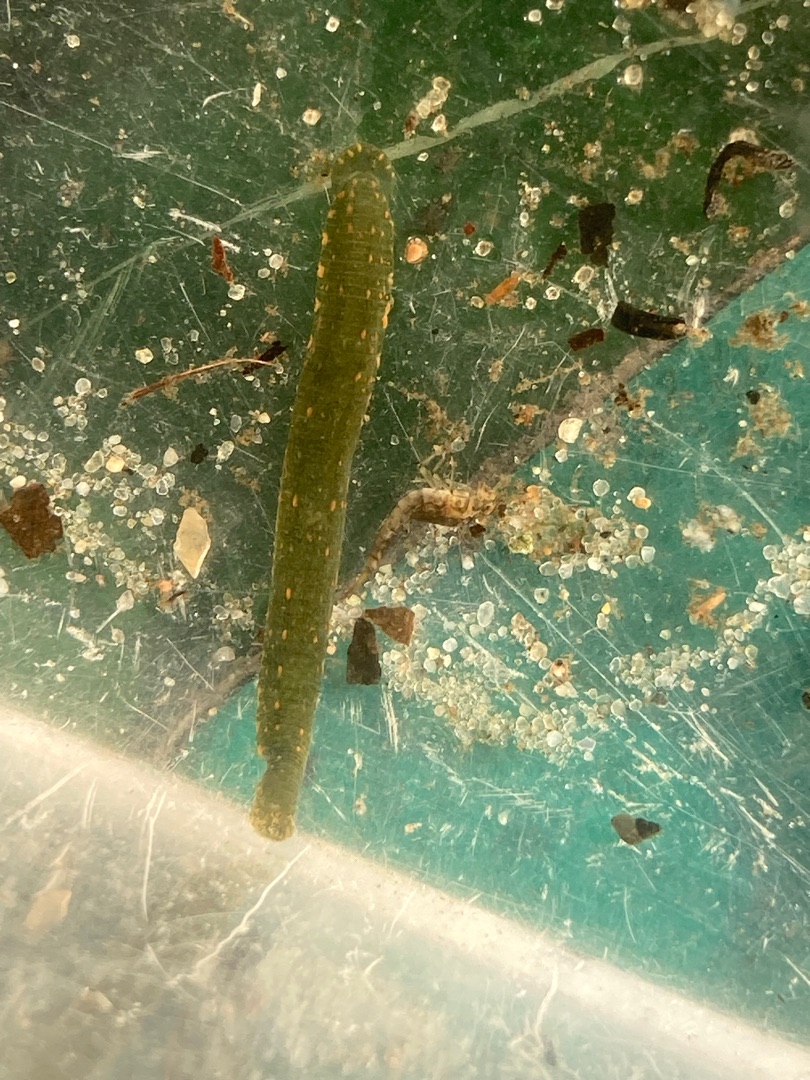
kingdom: Animalia
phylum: Annelida
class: Clitellata
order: Rhynchobdellida
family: Glossiphoniidae
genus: Theromyzon
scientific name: Theromyzon tessulatum
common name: Andeigle
